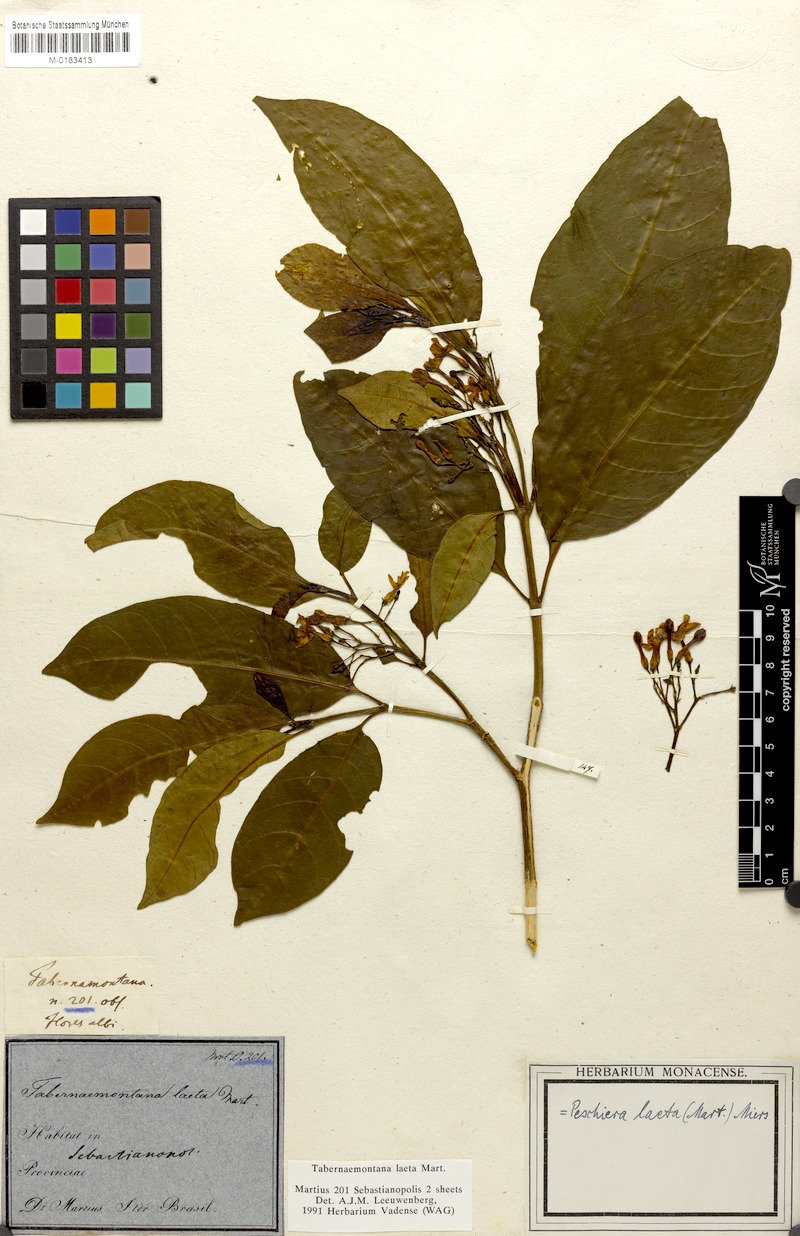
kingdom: Plantae
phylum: Tracheophyta
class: Magnoliopsida
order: Gentianales
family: Apocynaceae
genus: Tabernaemontana
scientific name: Tabernaemontana laeta
